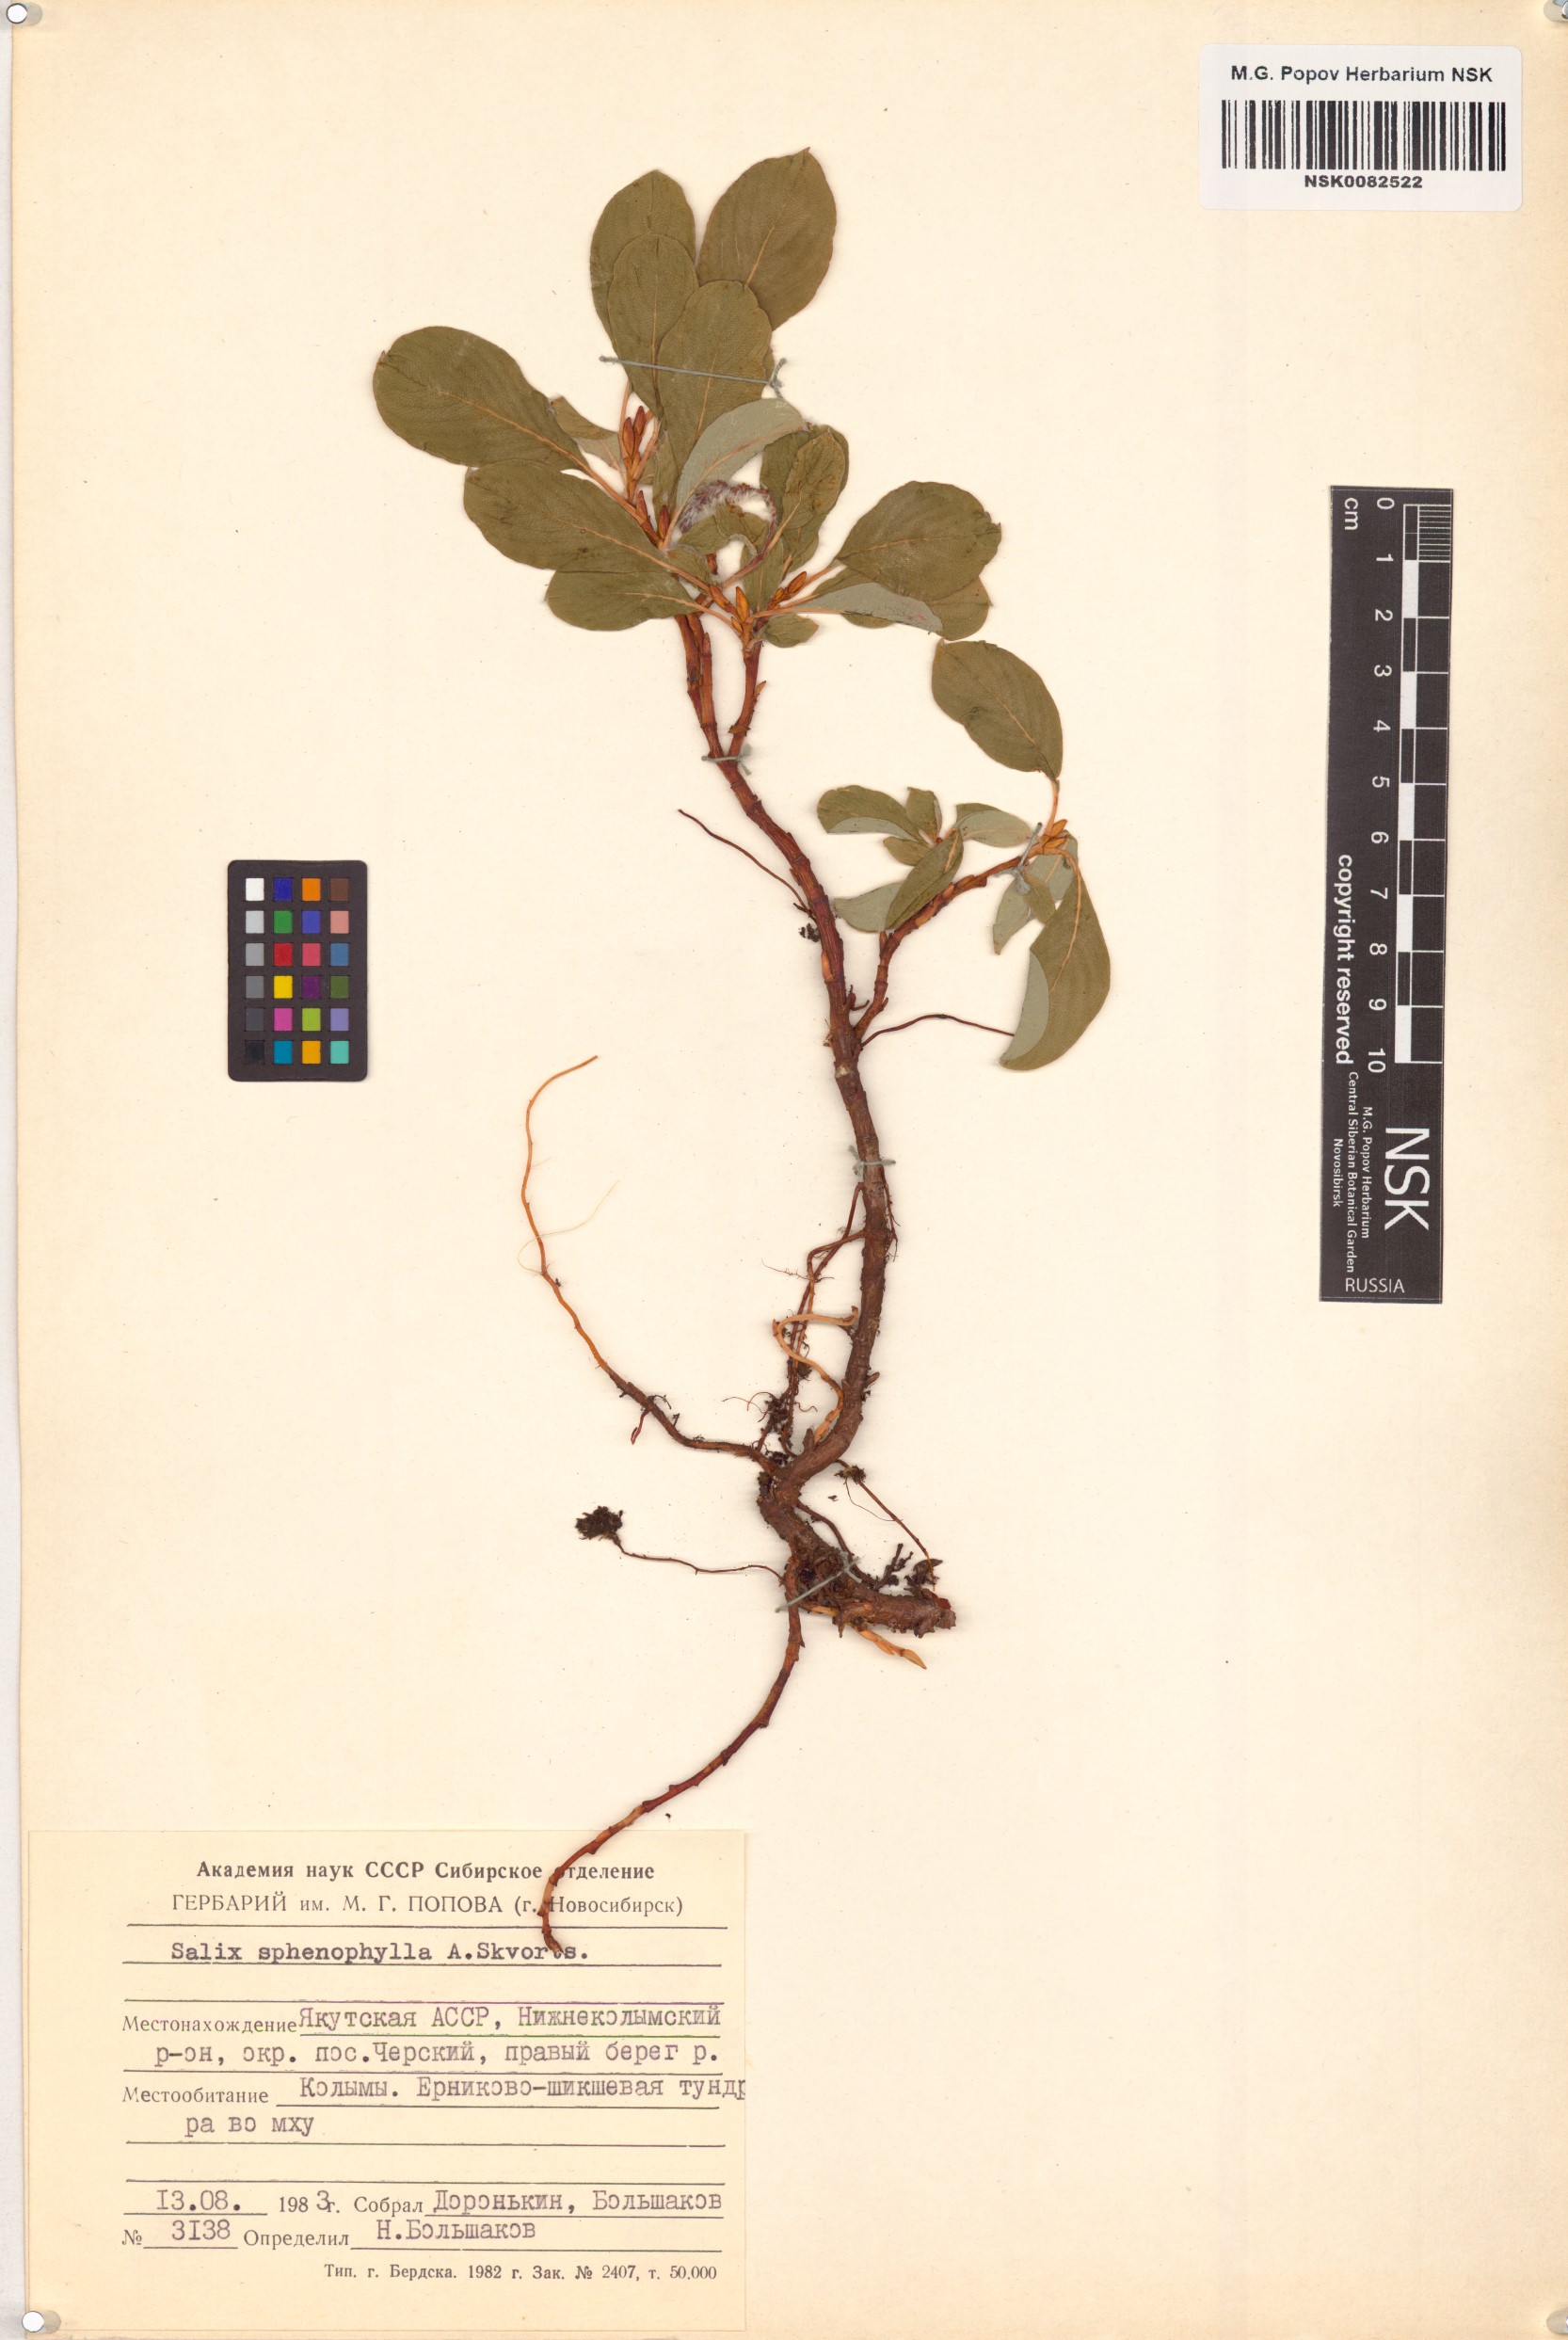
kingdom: Plantae
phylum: Tracheophyta
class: Magnoliopsida
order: Malpighiales
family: Salicaceae
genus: Salix
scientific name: Salix sphenophylla
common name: Wedge-leaved willow
